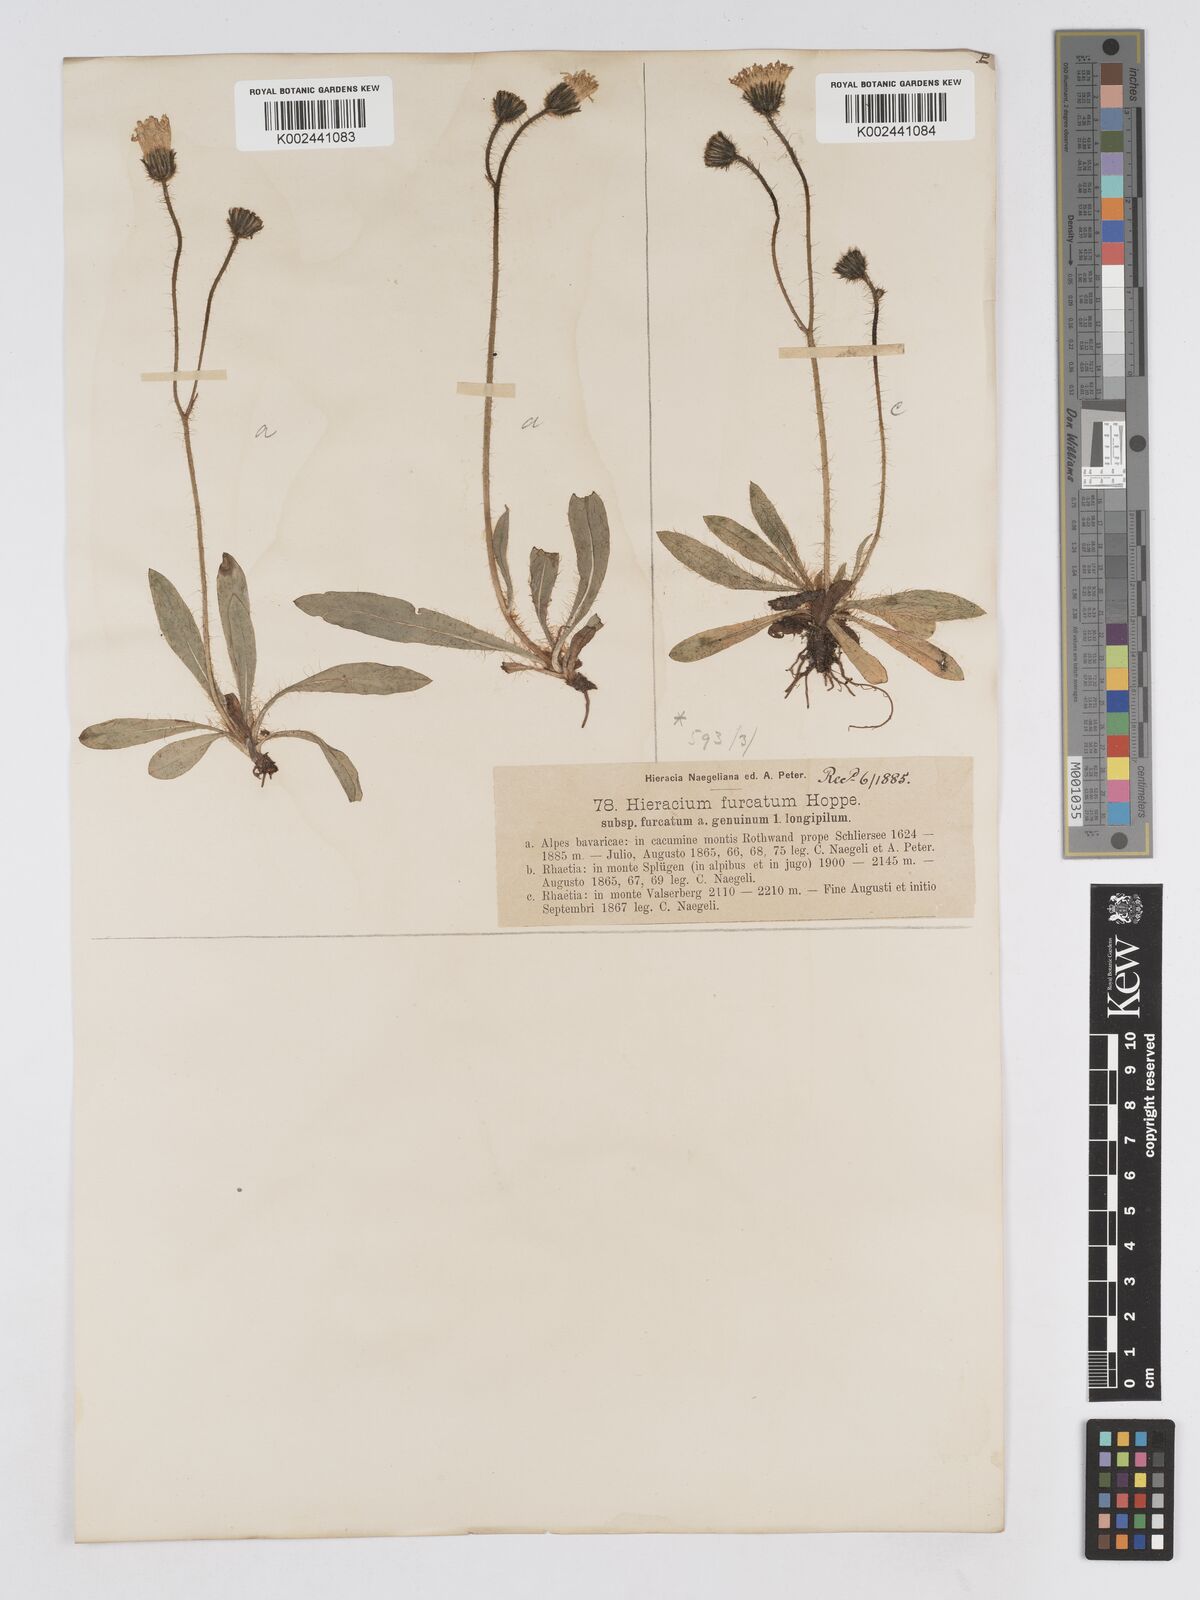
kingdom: Plantae
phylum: Tracheophyta
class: Magnoliopsida
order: Asterales
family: Asteraceae
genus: Pilosella
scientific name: Pilosella sphaerocephala
